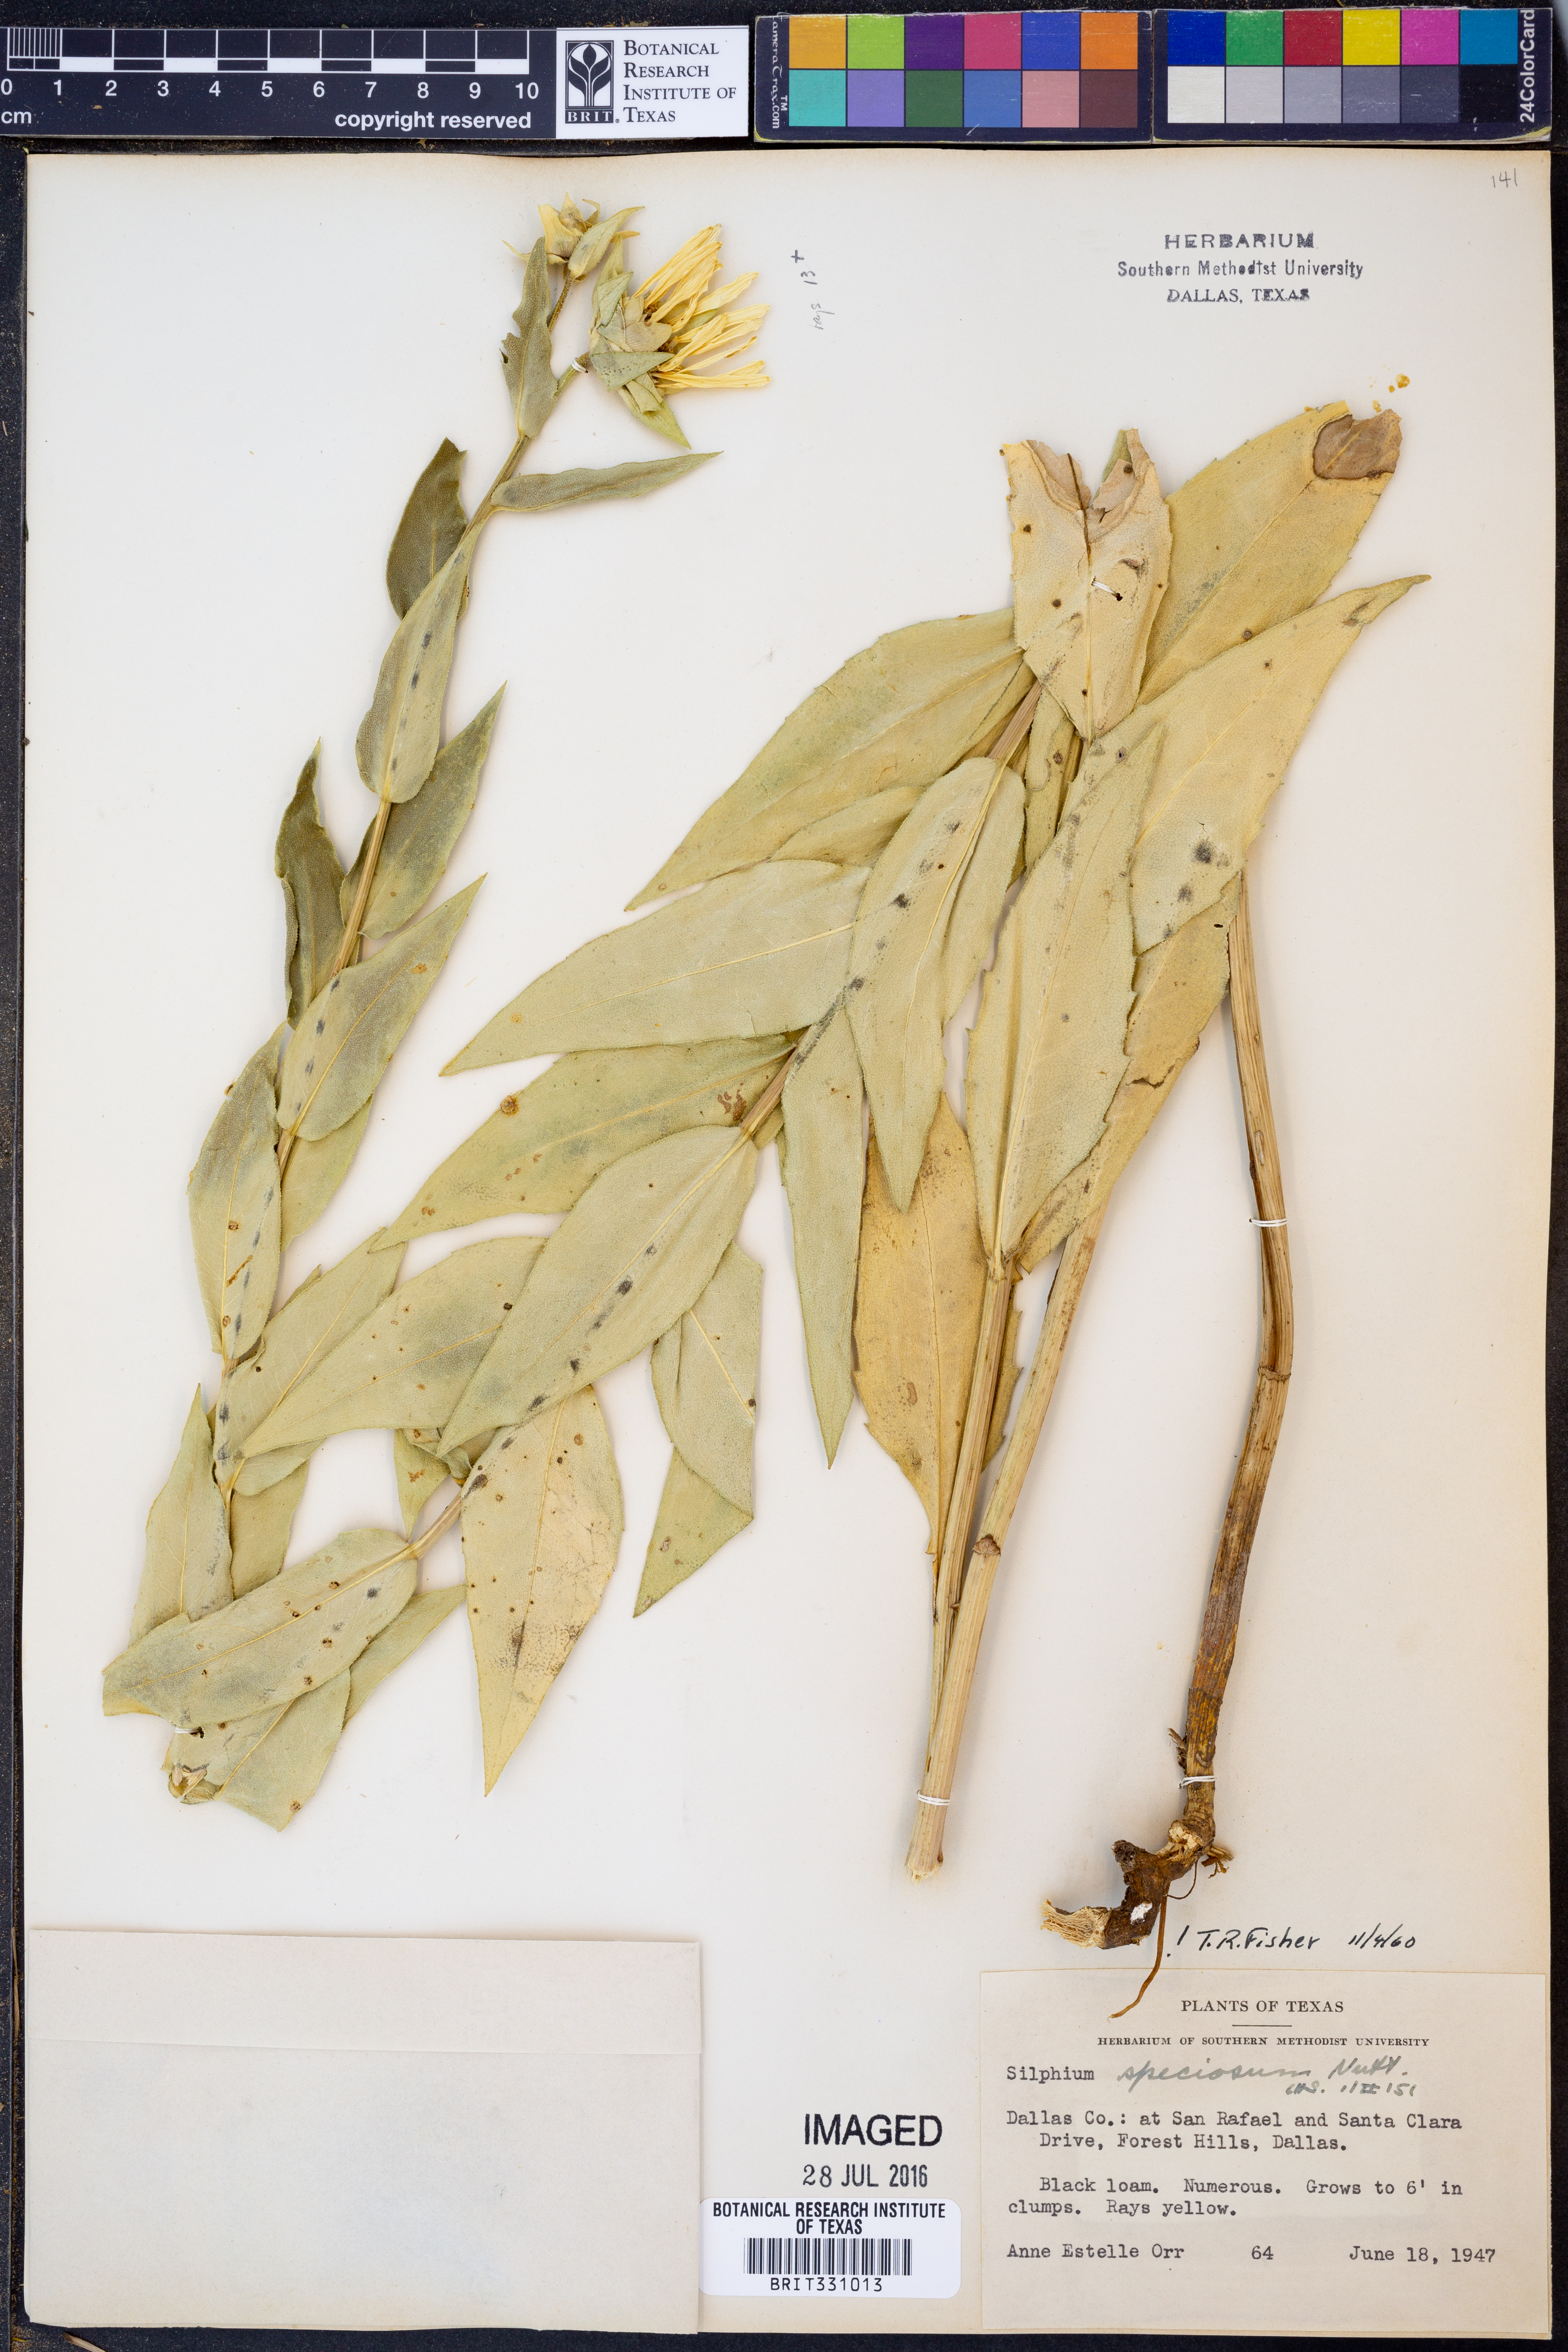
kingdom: Plantae
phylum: Tracheophyta
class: Magnoliopsida
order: Asterales
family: Asteraceae
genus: Silphium
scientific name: Silphium integrifolium
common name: Whole-leaf rosinweed
